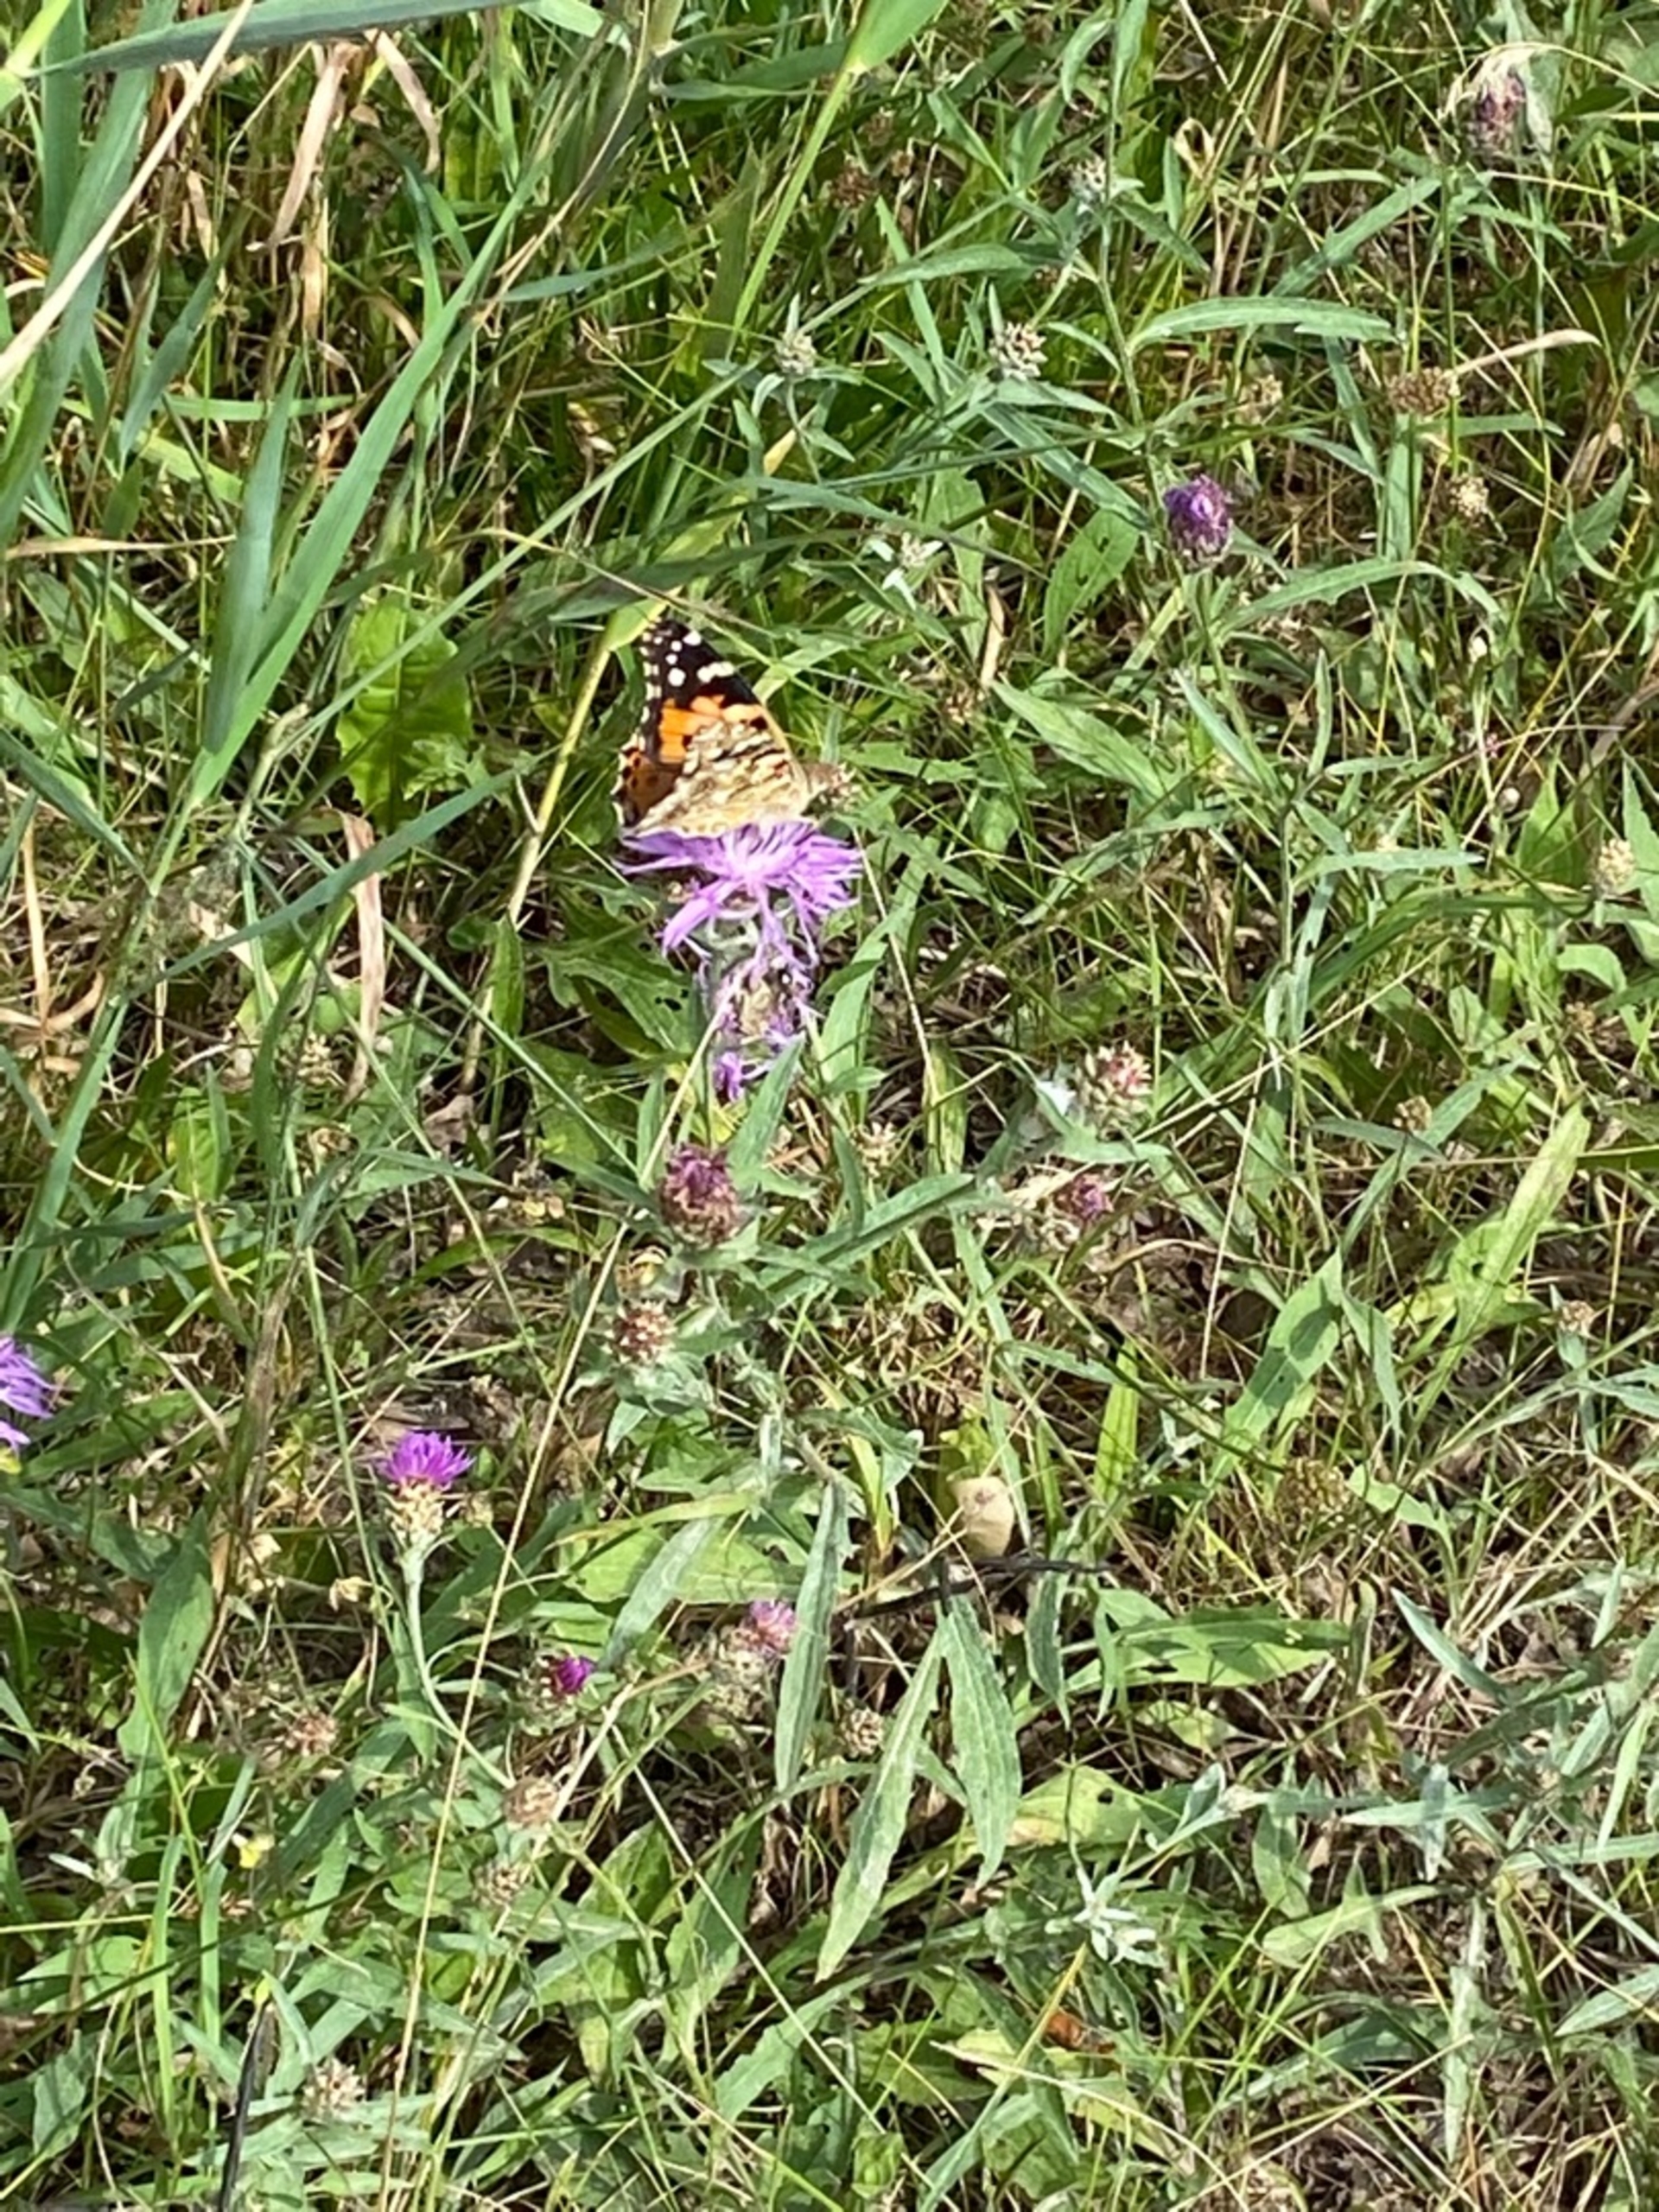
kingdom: Animalia
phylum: Arthropoda
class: Insecta
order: Lepidoptera
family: Nymphalidae
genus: Vanessa
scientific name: Vanessa cardui
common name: Tidselsommerfugl
